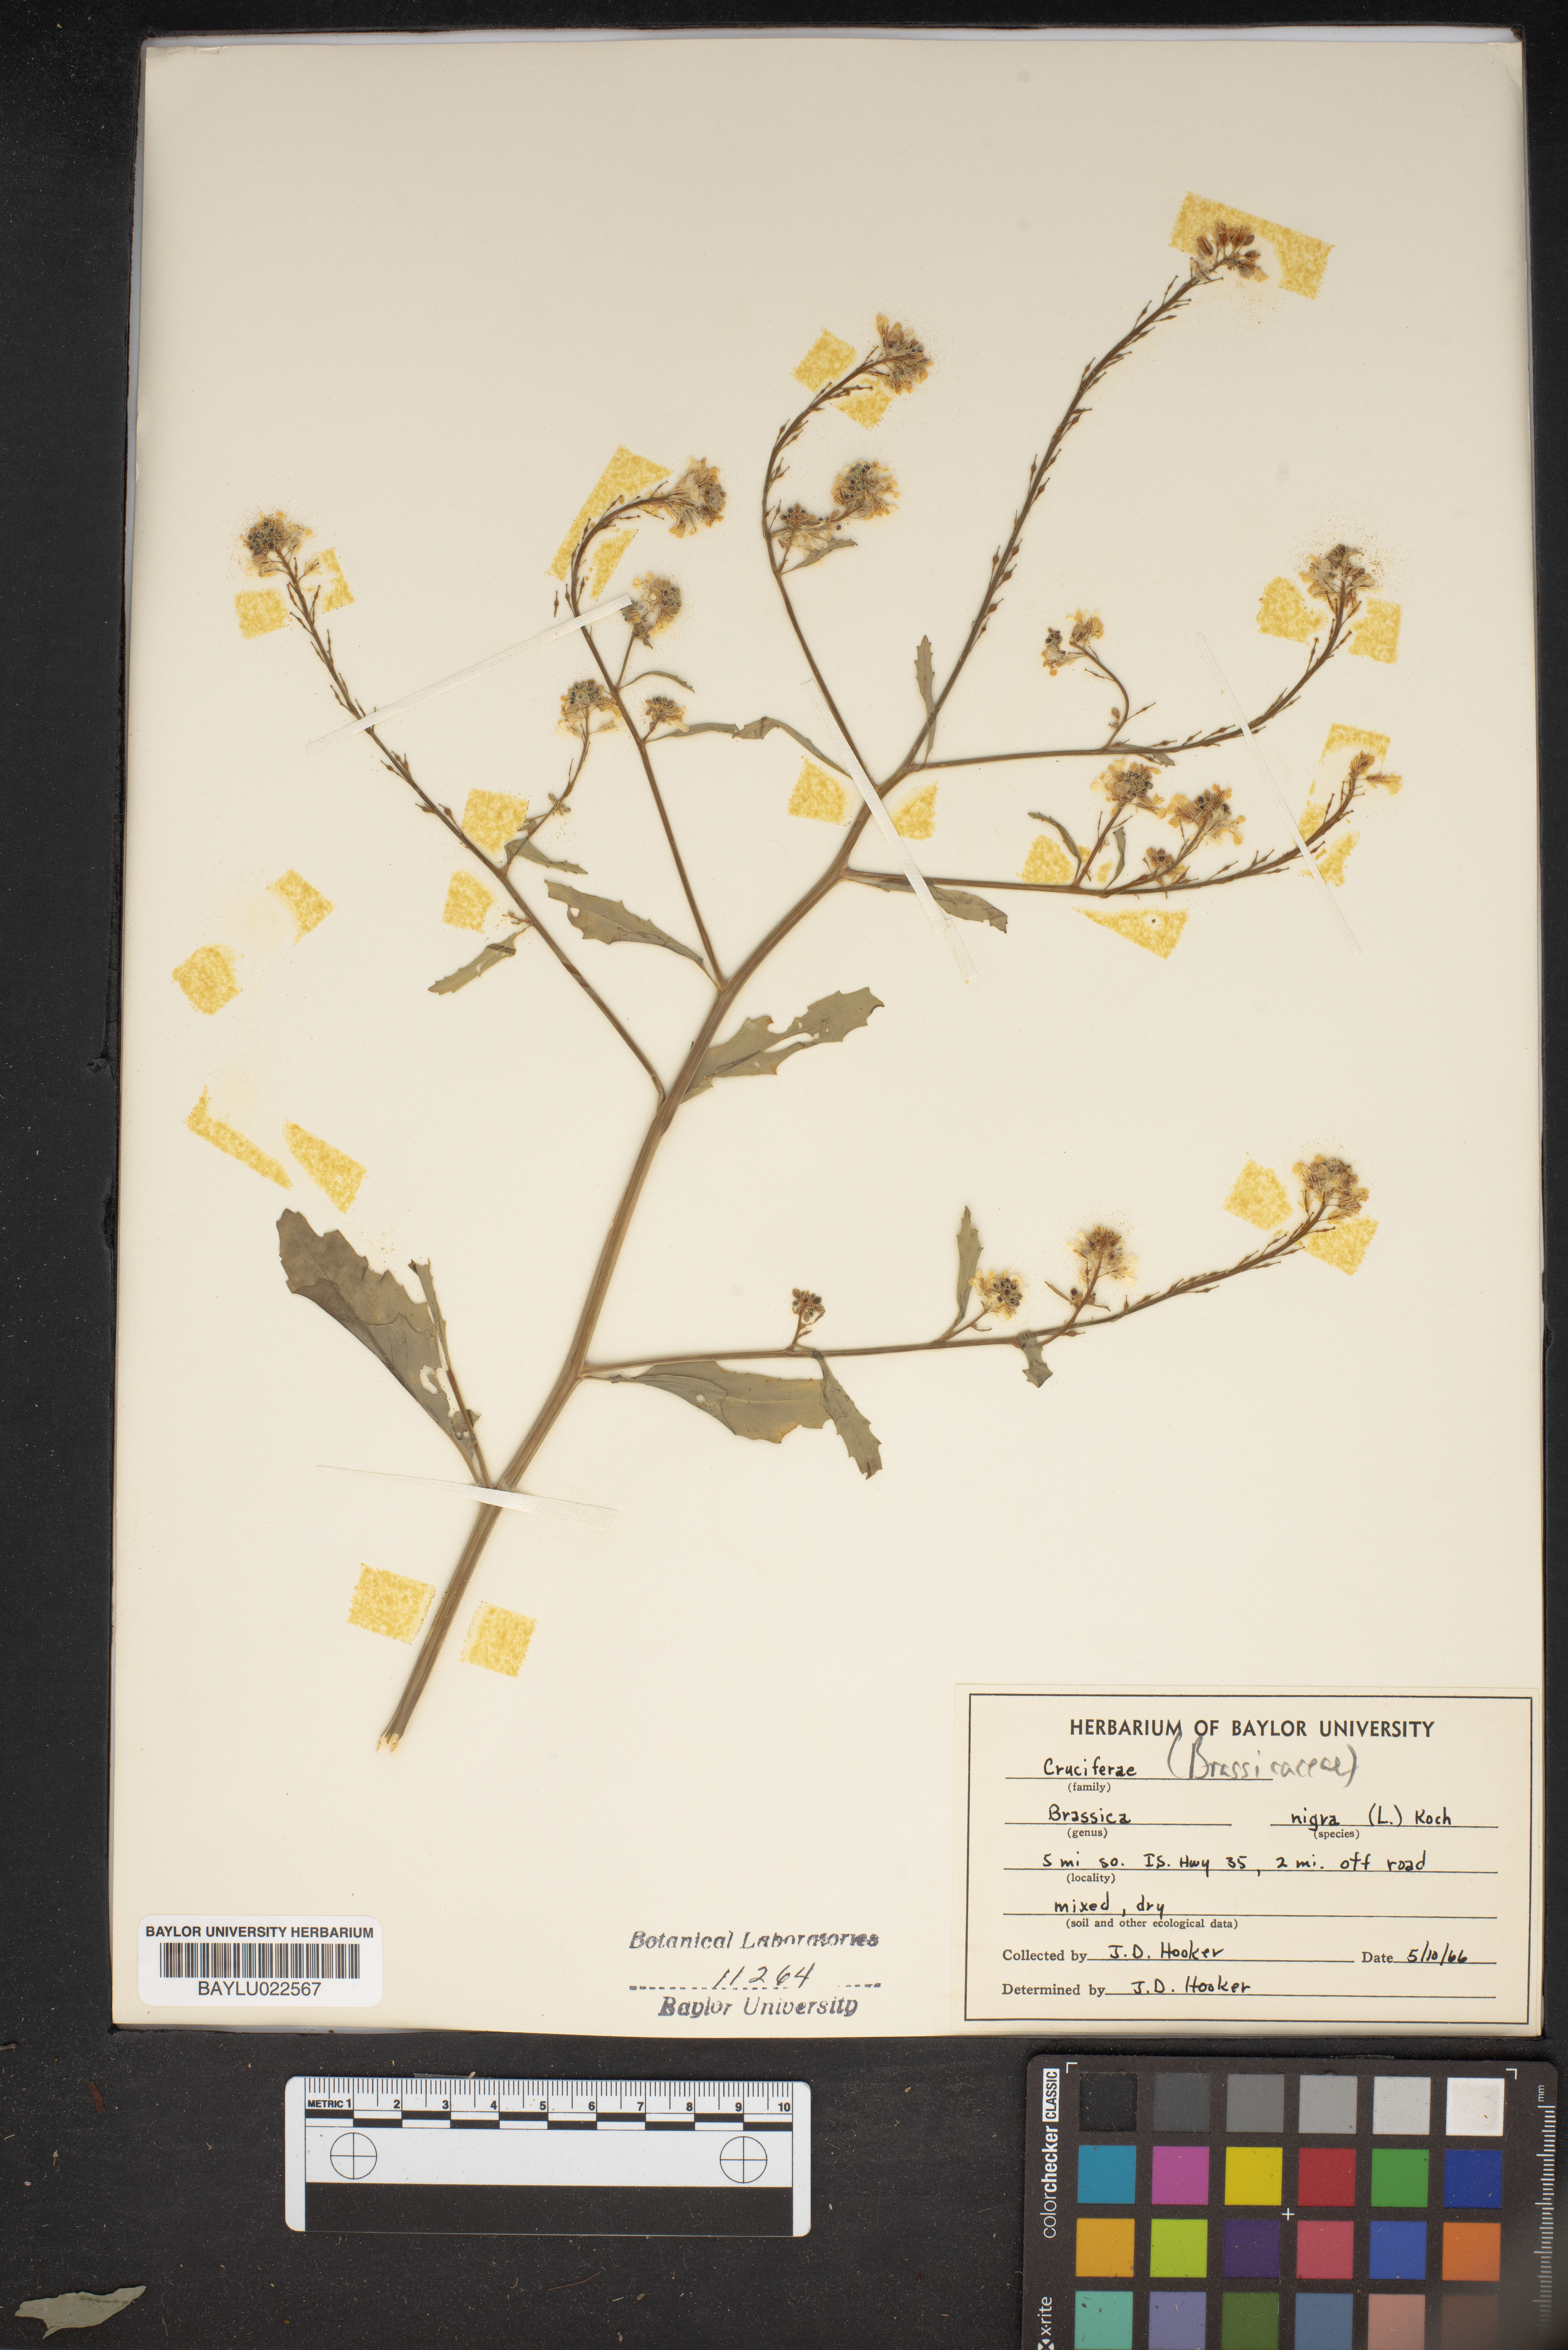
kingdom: Plantae
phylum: Tracheophyta
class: Magnoliopsida
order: Brassicales
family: Brassicaceae
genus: Brassica
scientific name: Brassica nigra
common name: Black mustard
